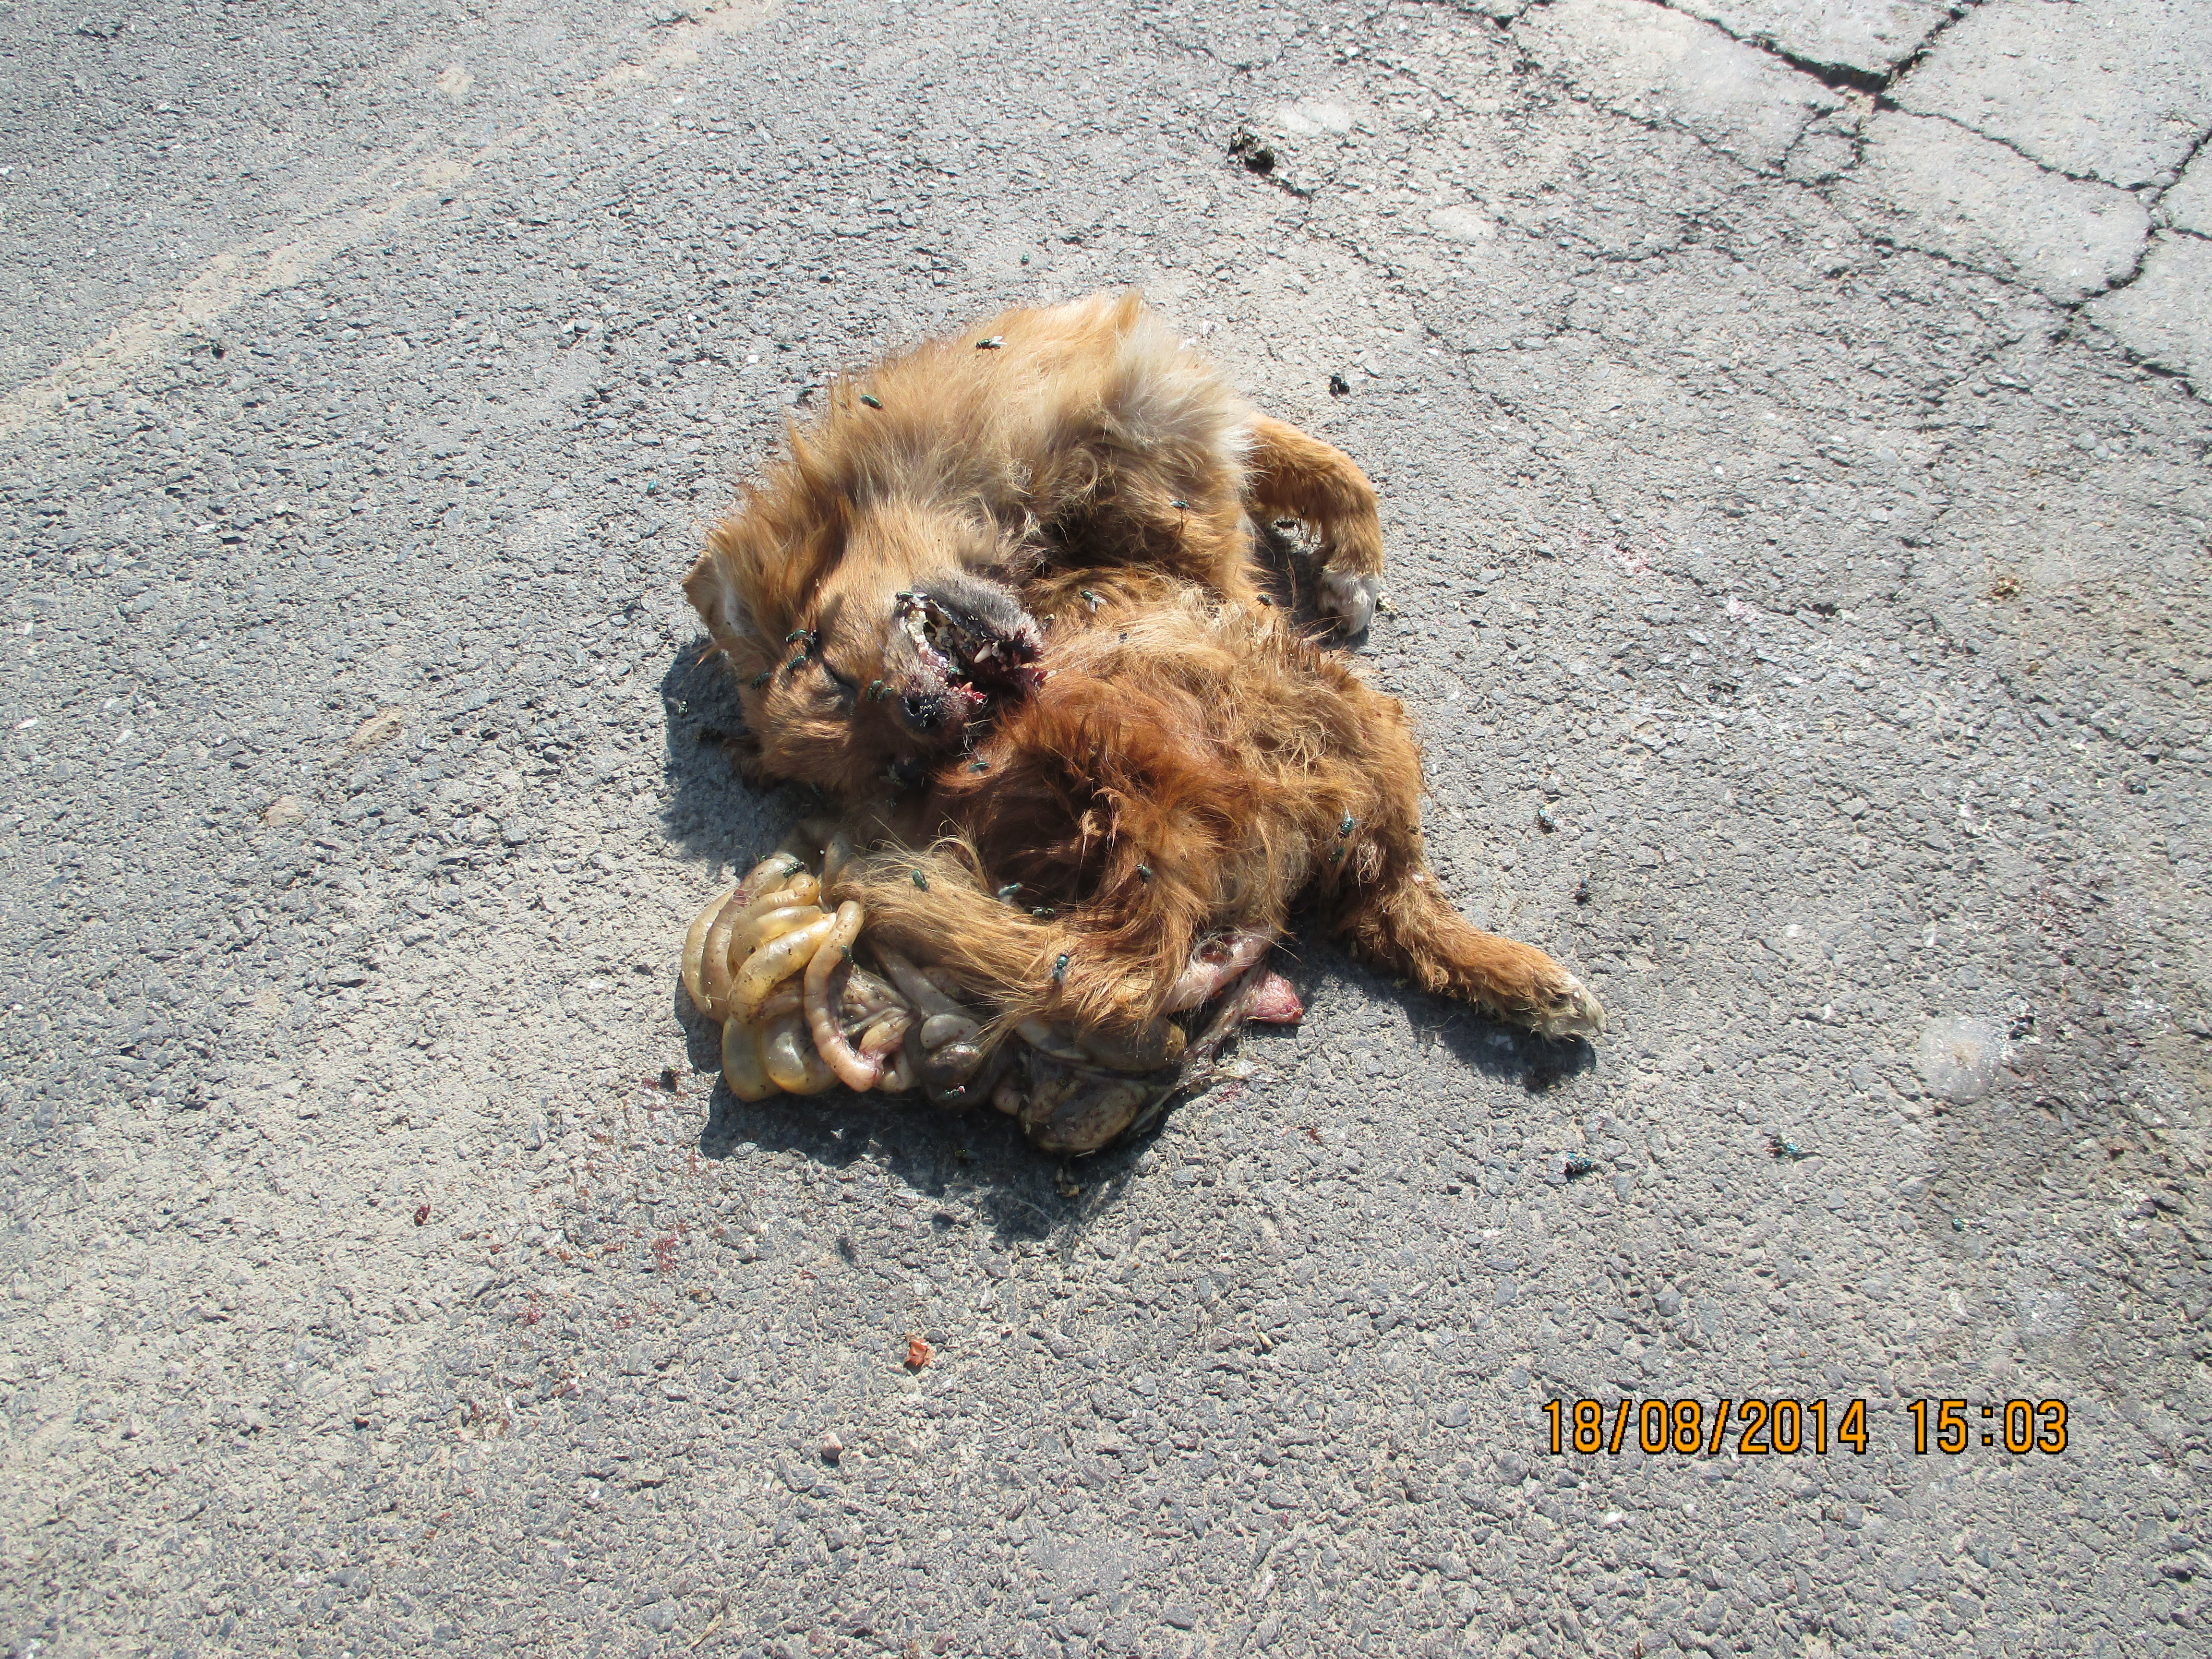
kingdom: Animalia
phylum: Chordata
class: Mammalia
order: Carnivora
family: Canidae
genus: Canis
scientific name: Canis lupus
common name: Gray wolf
